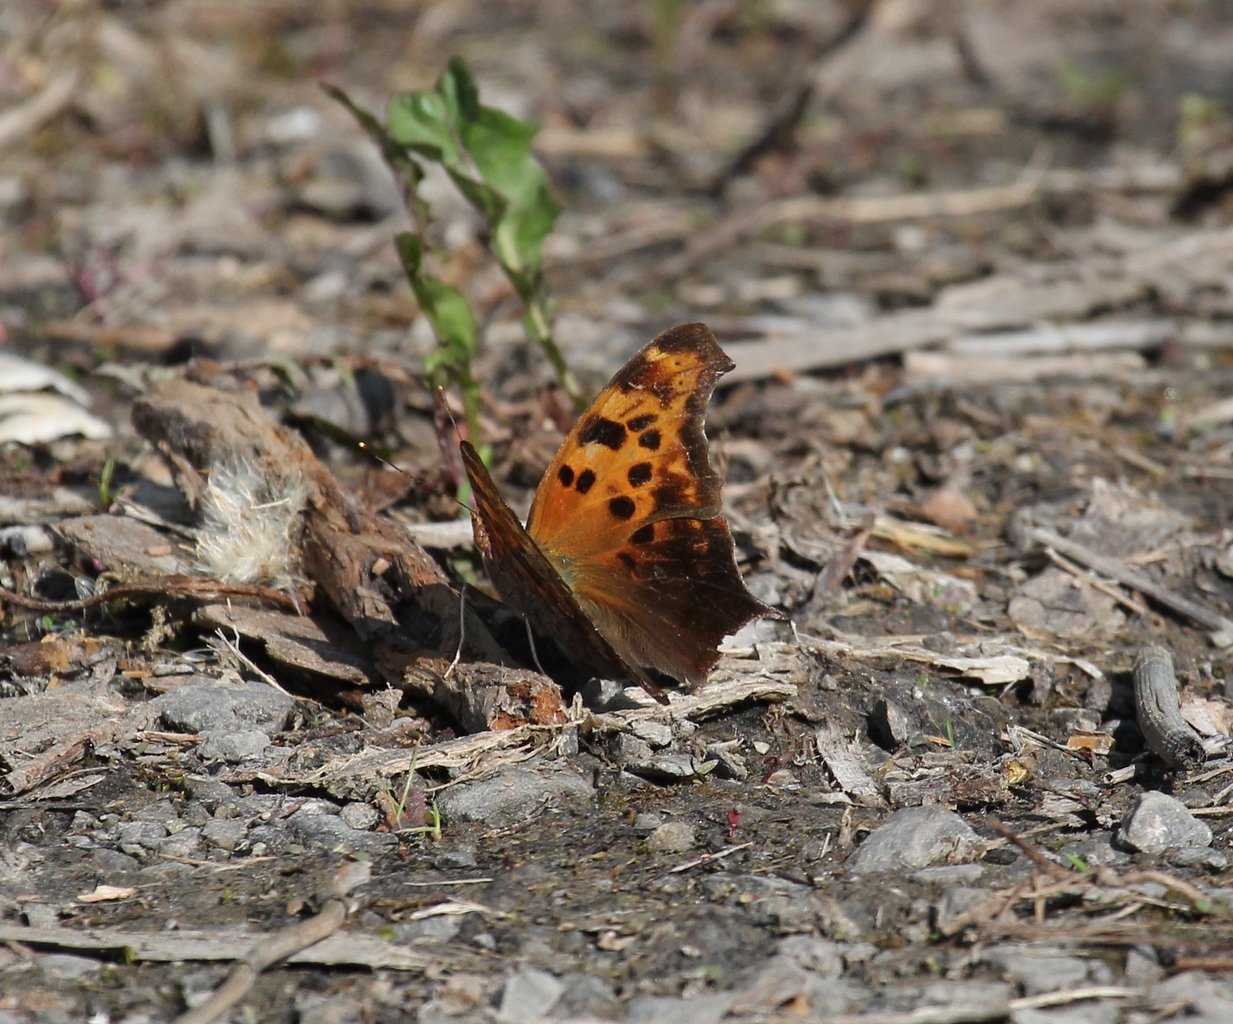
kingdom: Animalia
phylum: Arthropoda
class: Insecta
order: Lepidoptera
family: Nymphalidae
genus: Polygonia
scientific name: Polygonia interrogationis
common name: Question Mark
